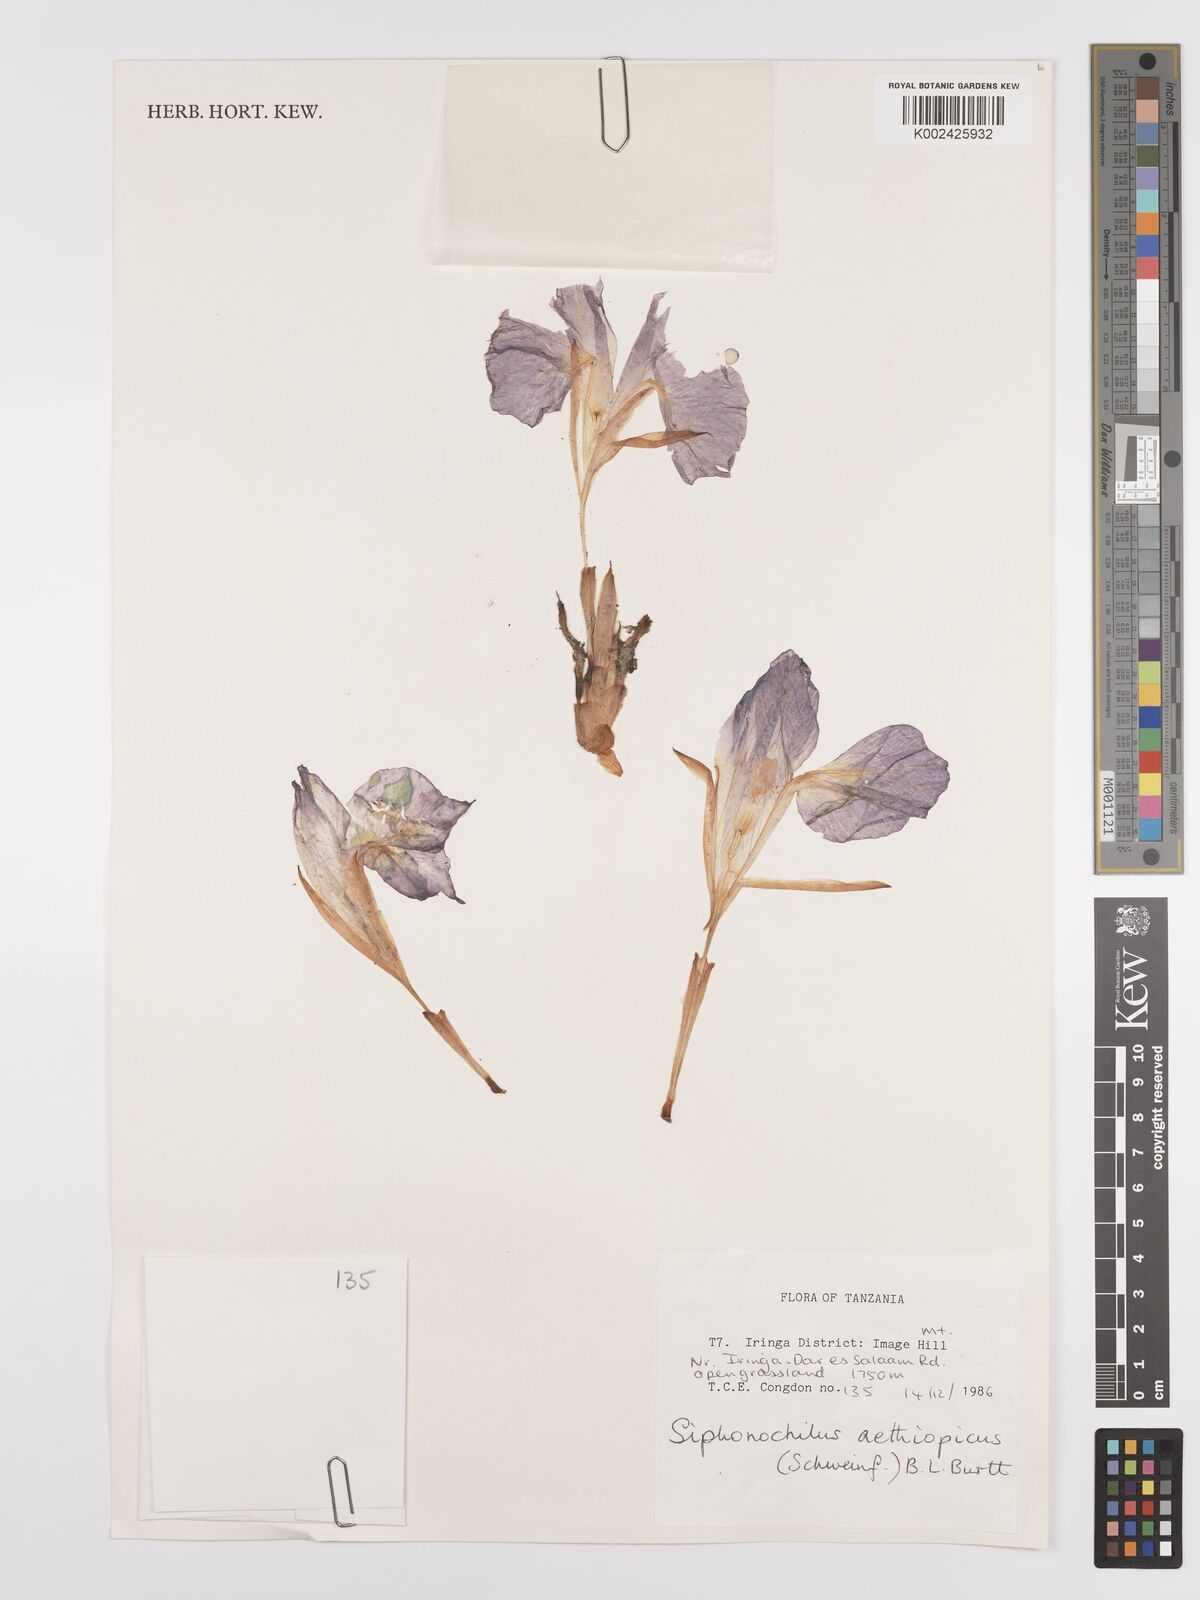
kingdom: Plantae
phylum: Tracheophyta
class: Liliopsida
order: Zingiberales
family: Zingiberaceae
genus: Siphonochilus
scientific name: Siphonochilus aethiopicus
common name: African-ginger
